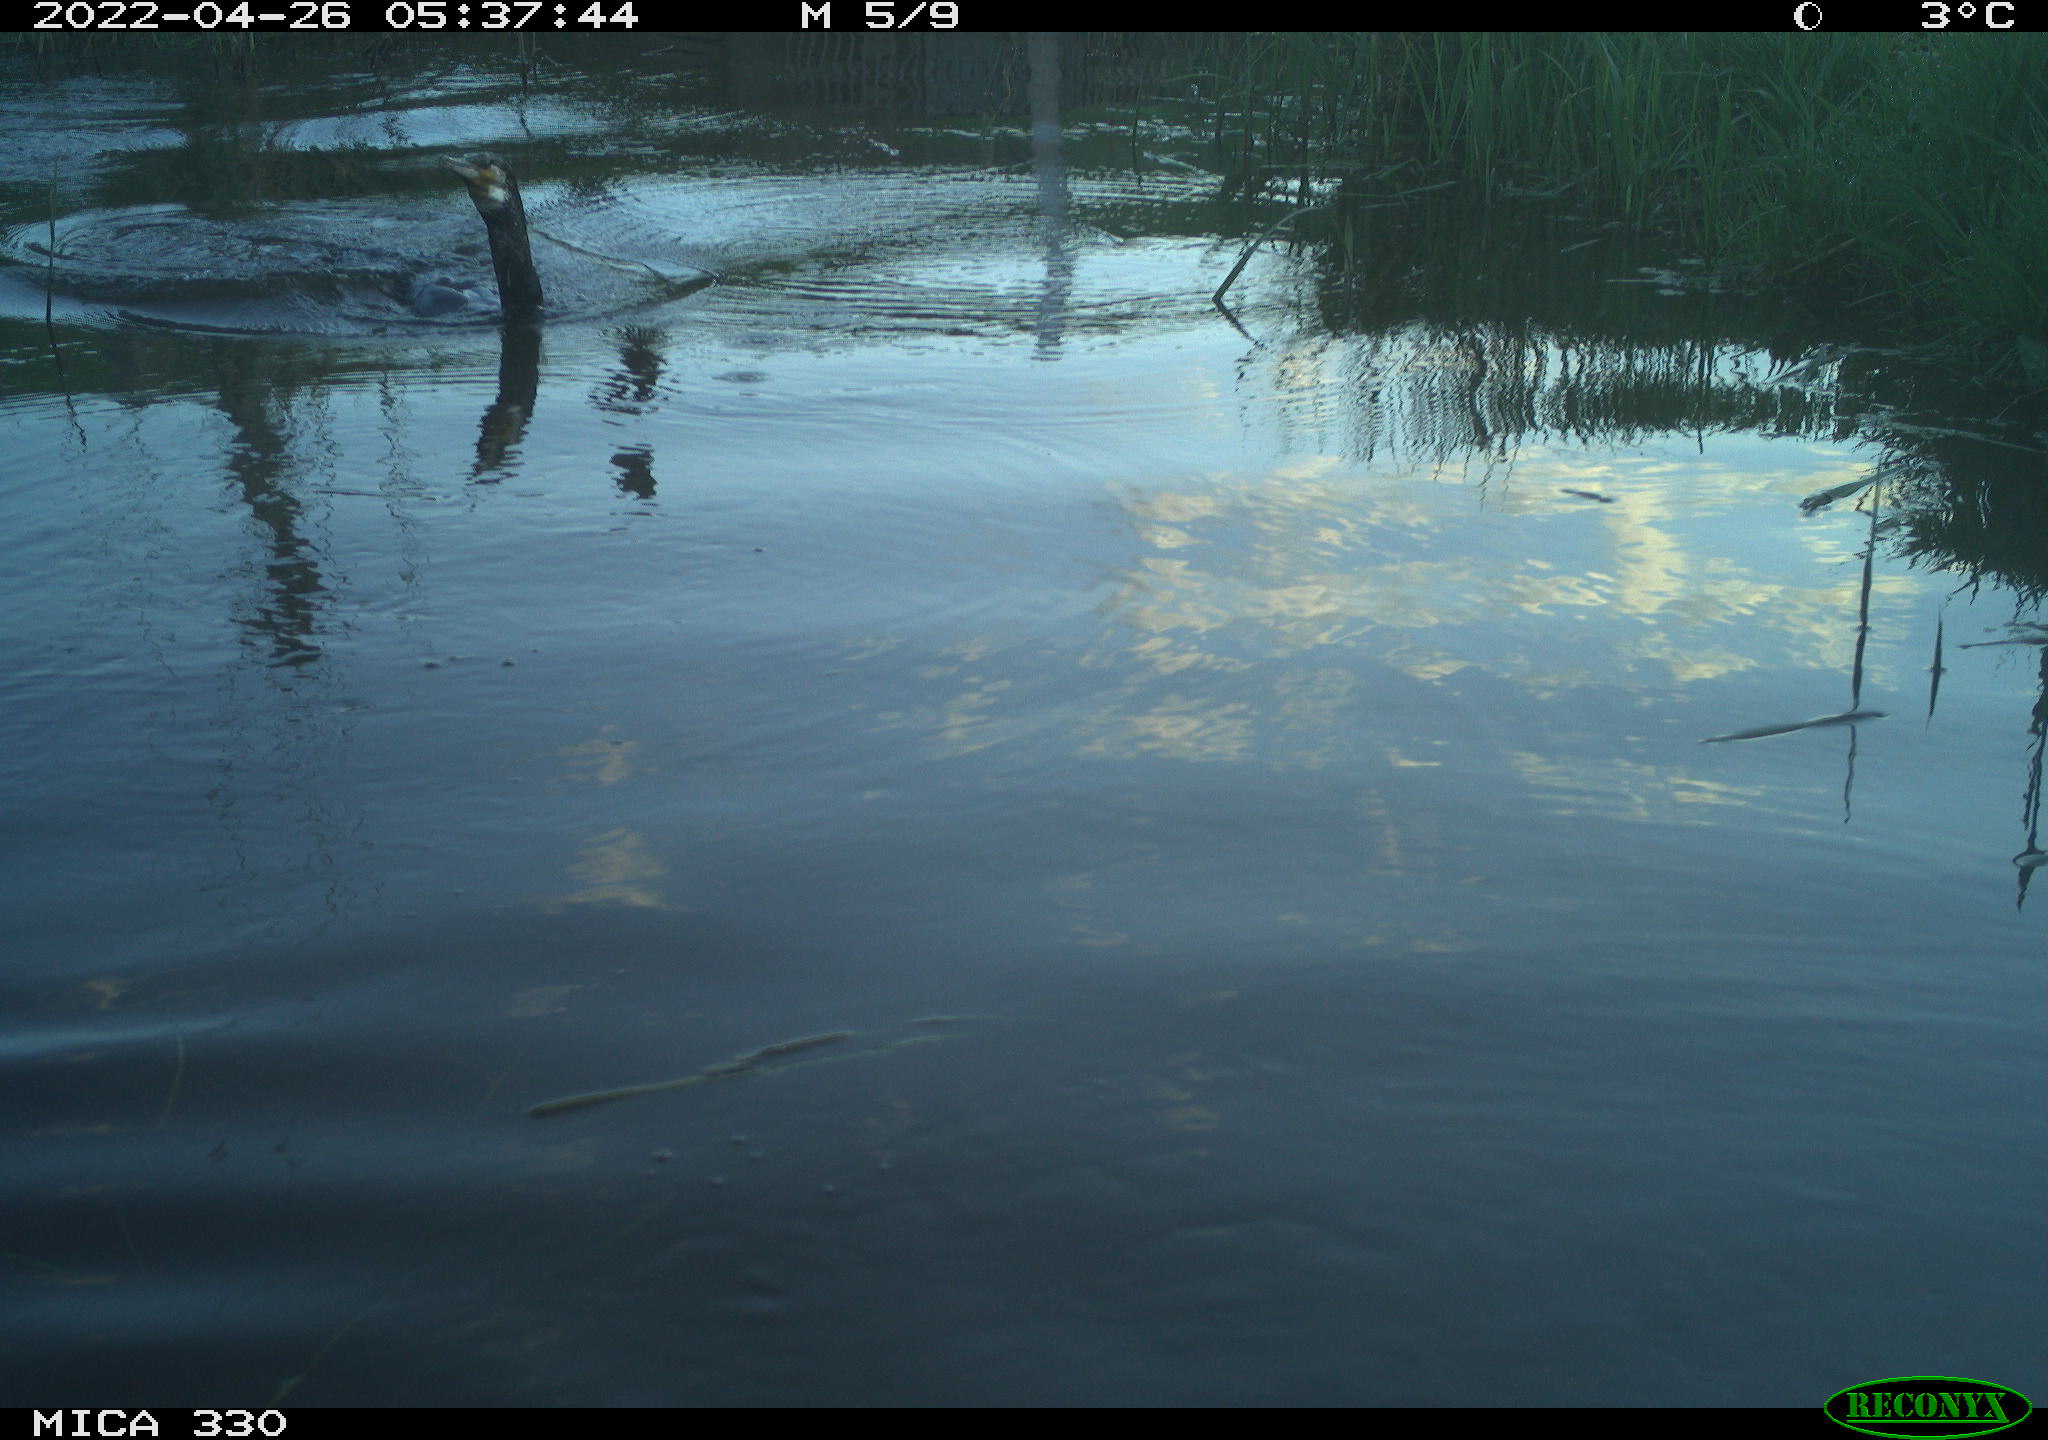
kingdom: Animalia
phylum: Chordata
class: Aves
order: Suliformes
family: Phalacrocoracidae
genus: Phalacrocorax
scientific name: Phalacrocorax carbo
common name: Great cormorant
